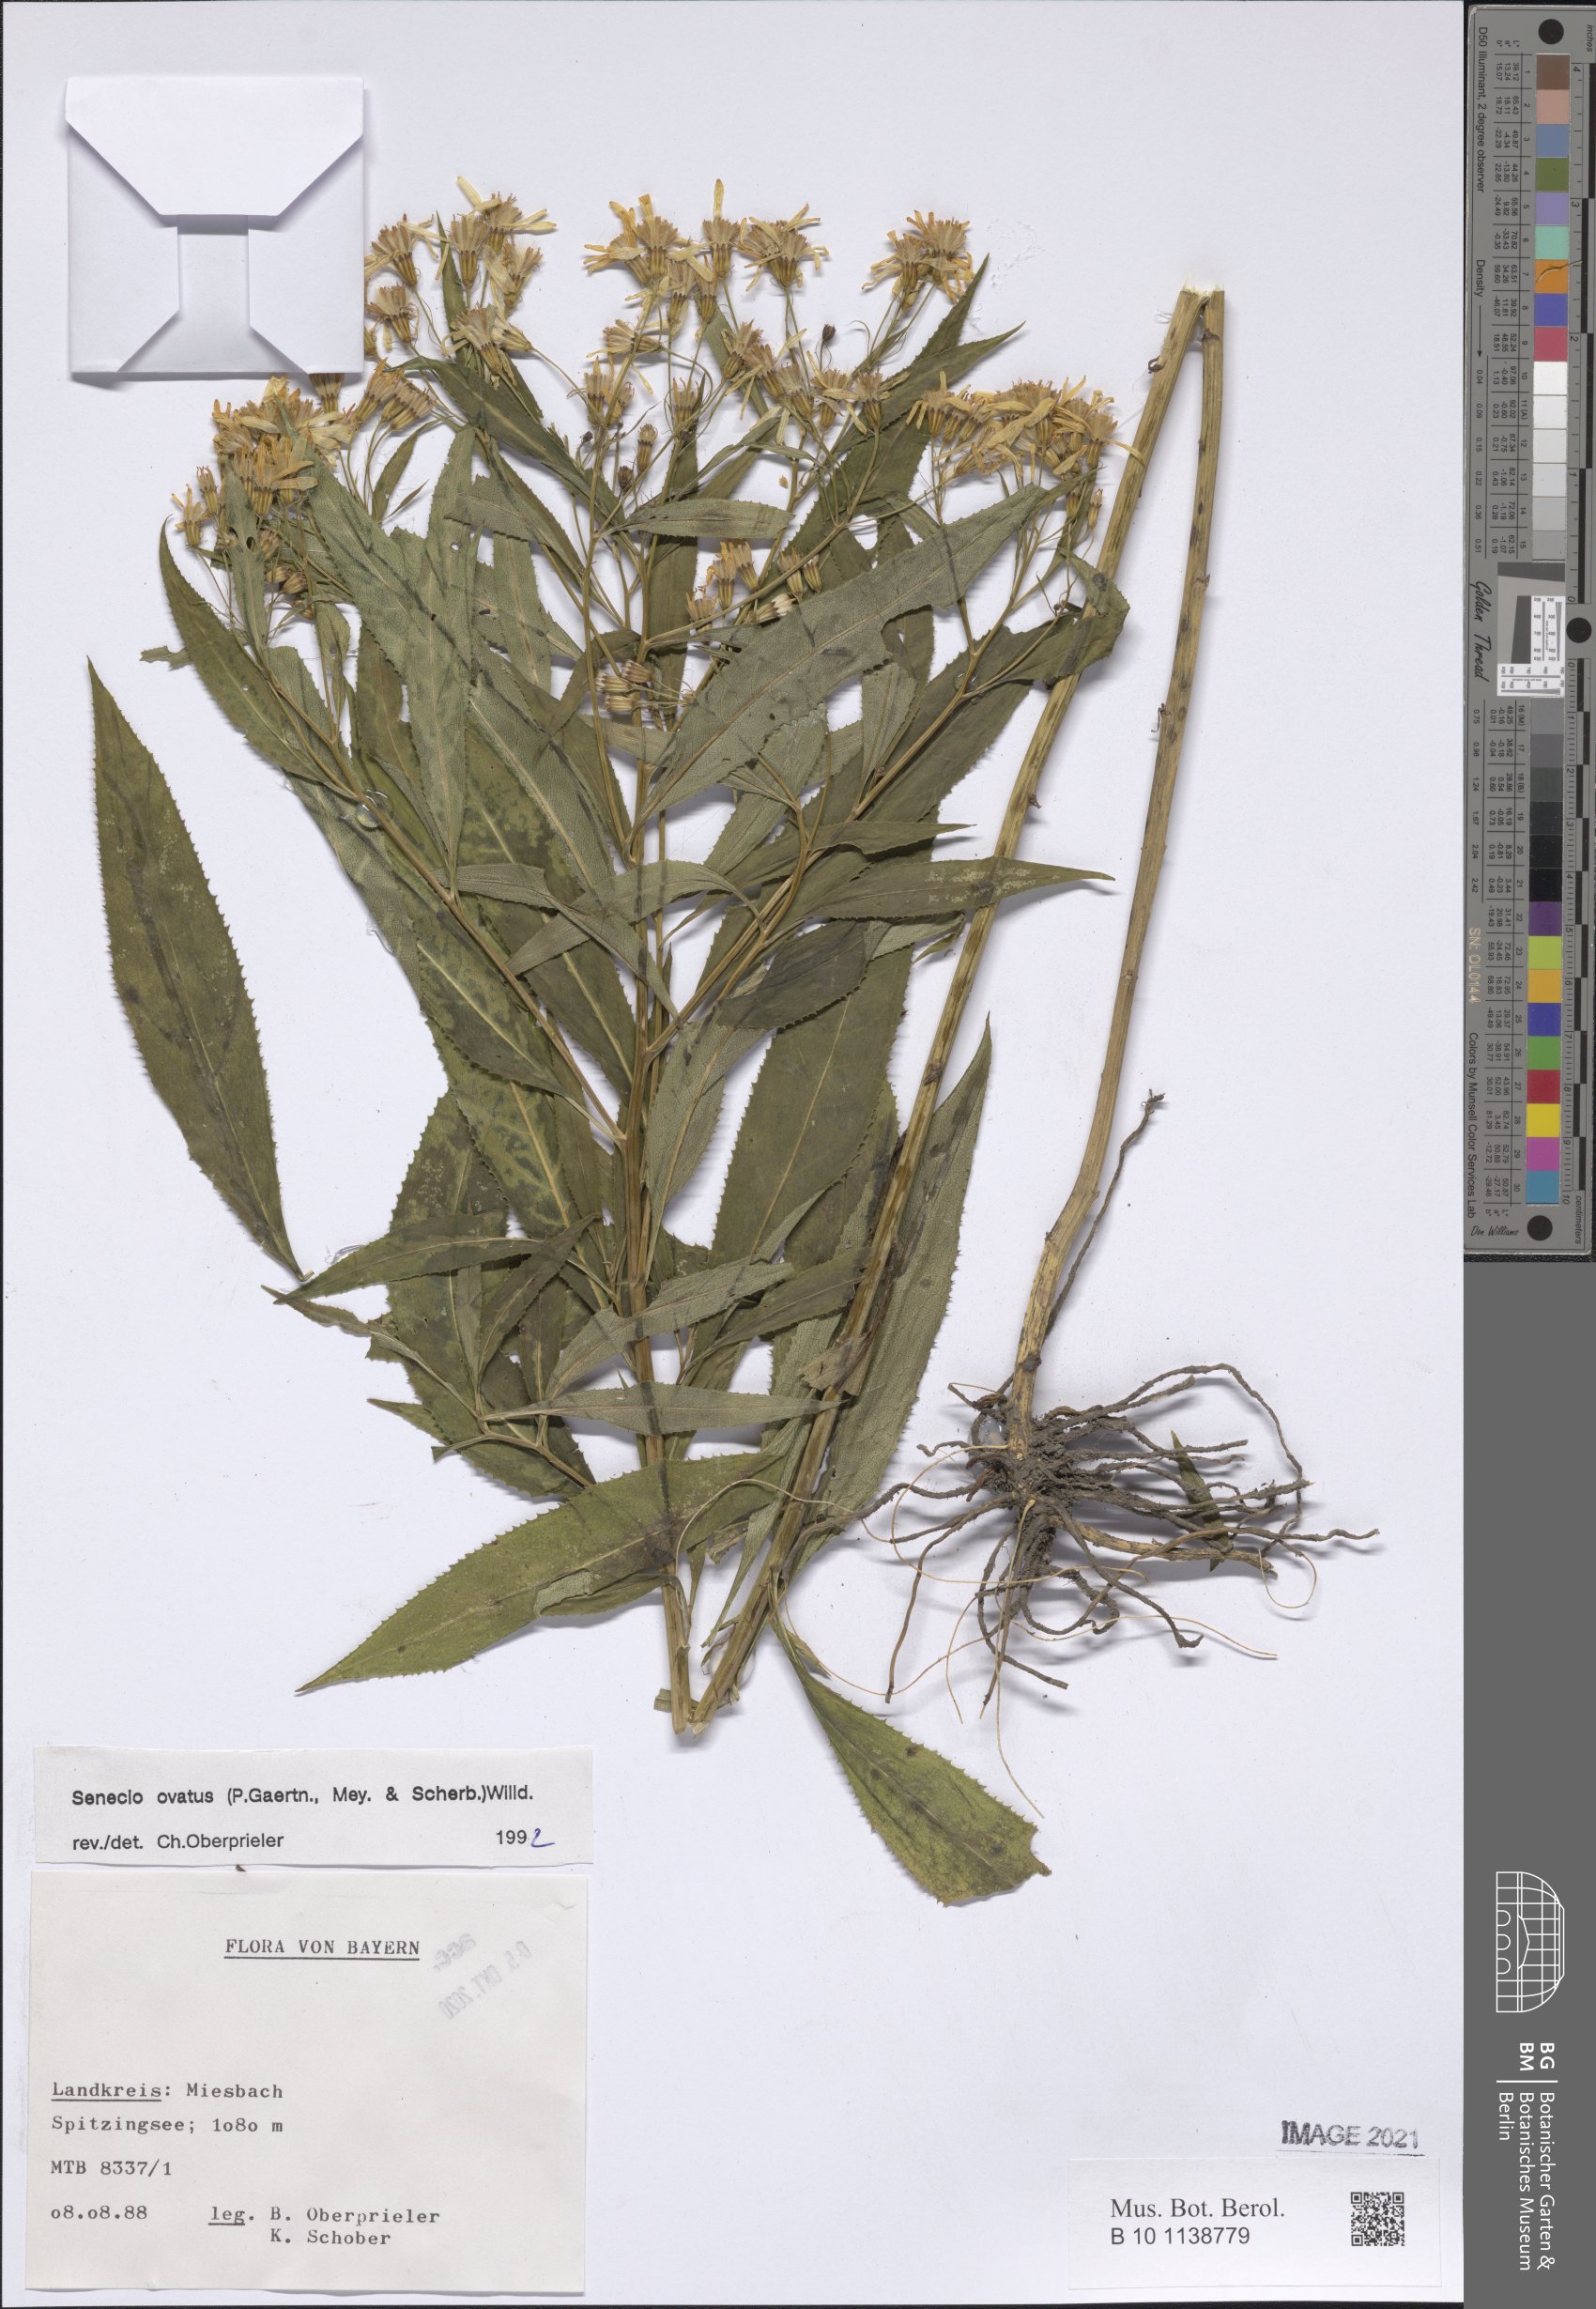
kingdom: Plantae
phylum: Tracheophyta
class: Magnoliopsida
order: Asterales
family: Asteraceae
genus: Senecio
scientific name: Senecio ovatus
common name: Wood ragwort
